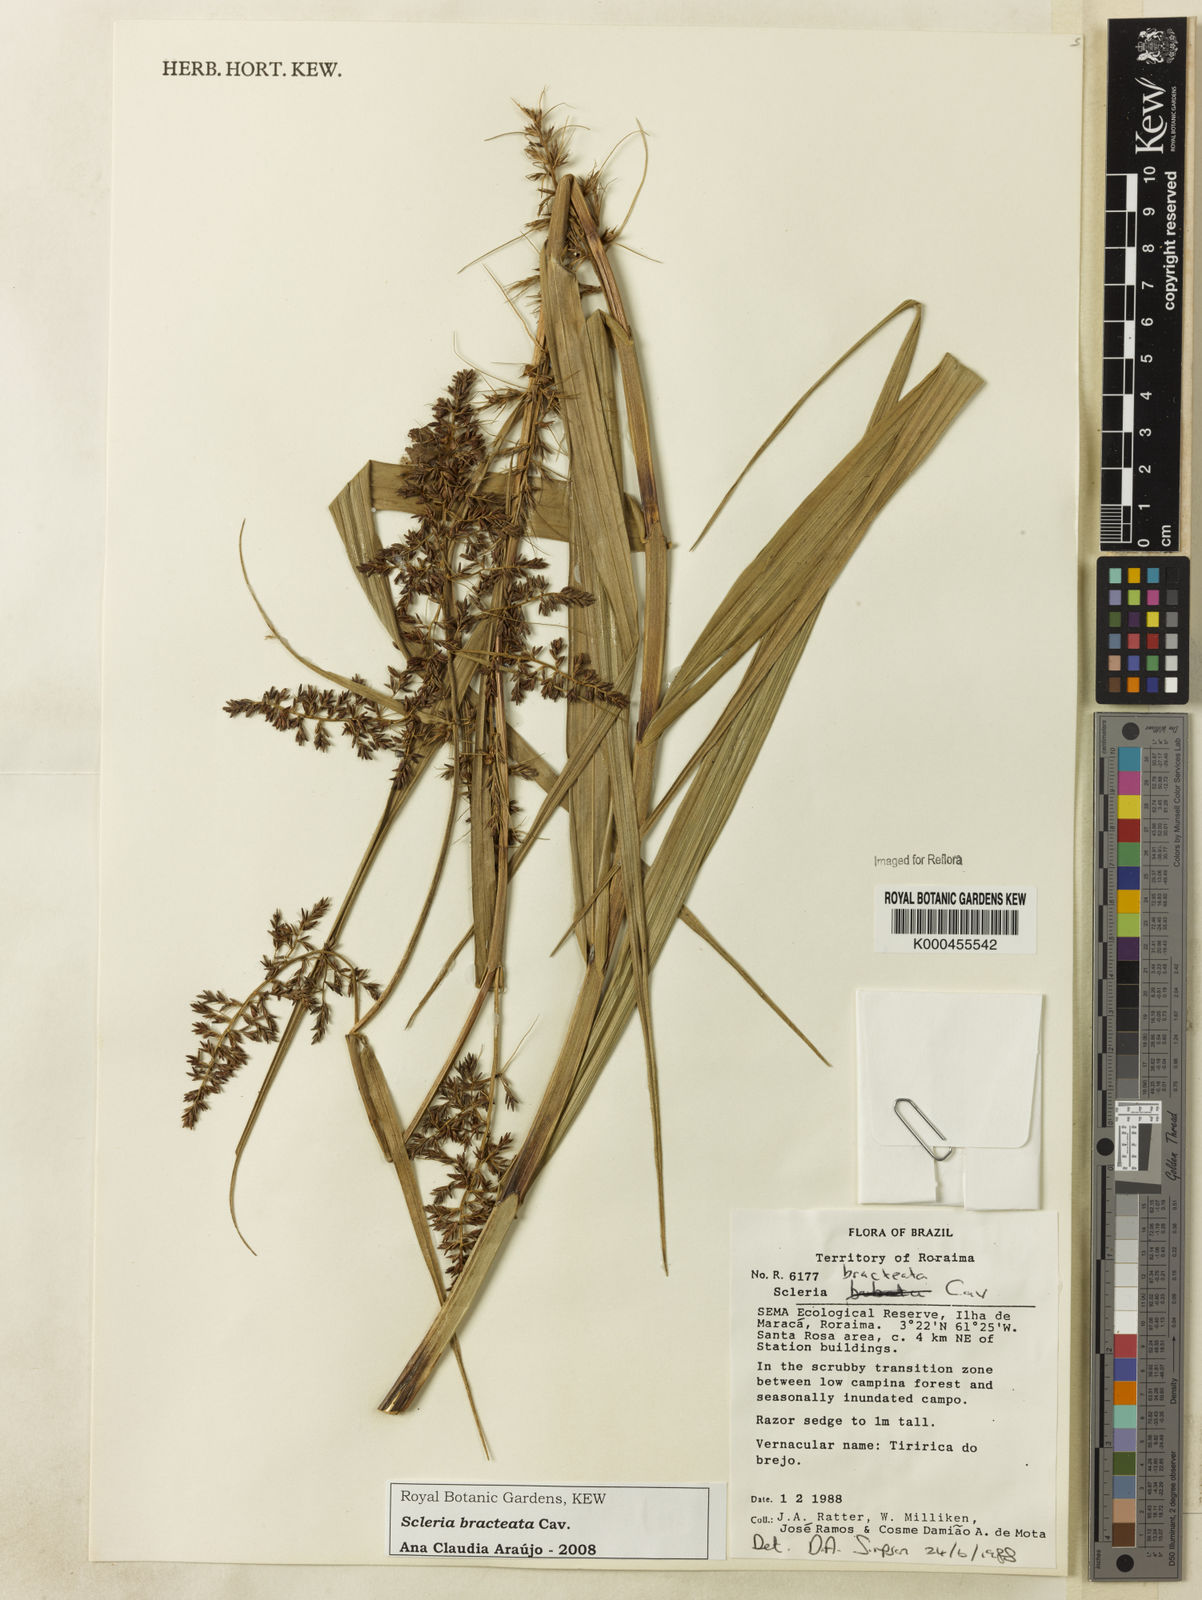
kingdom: Plantae
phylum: Tracheophyta
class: Liliopsida
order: Poales
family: Cyperaceae
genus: Scleria
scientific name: Scleria bracteata
